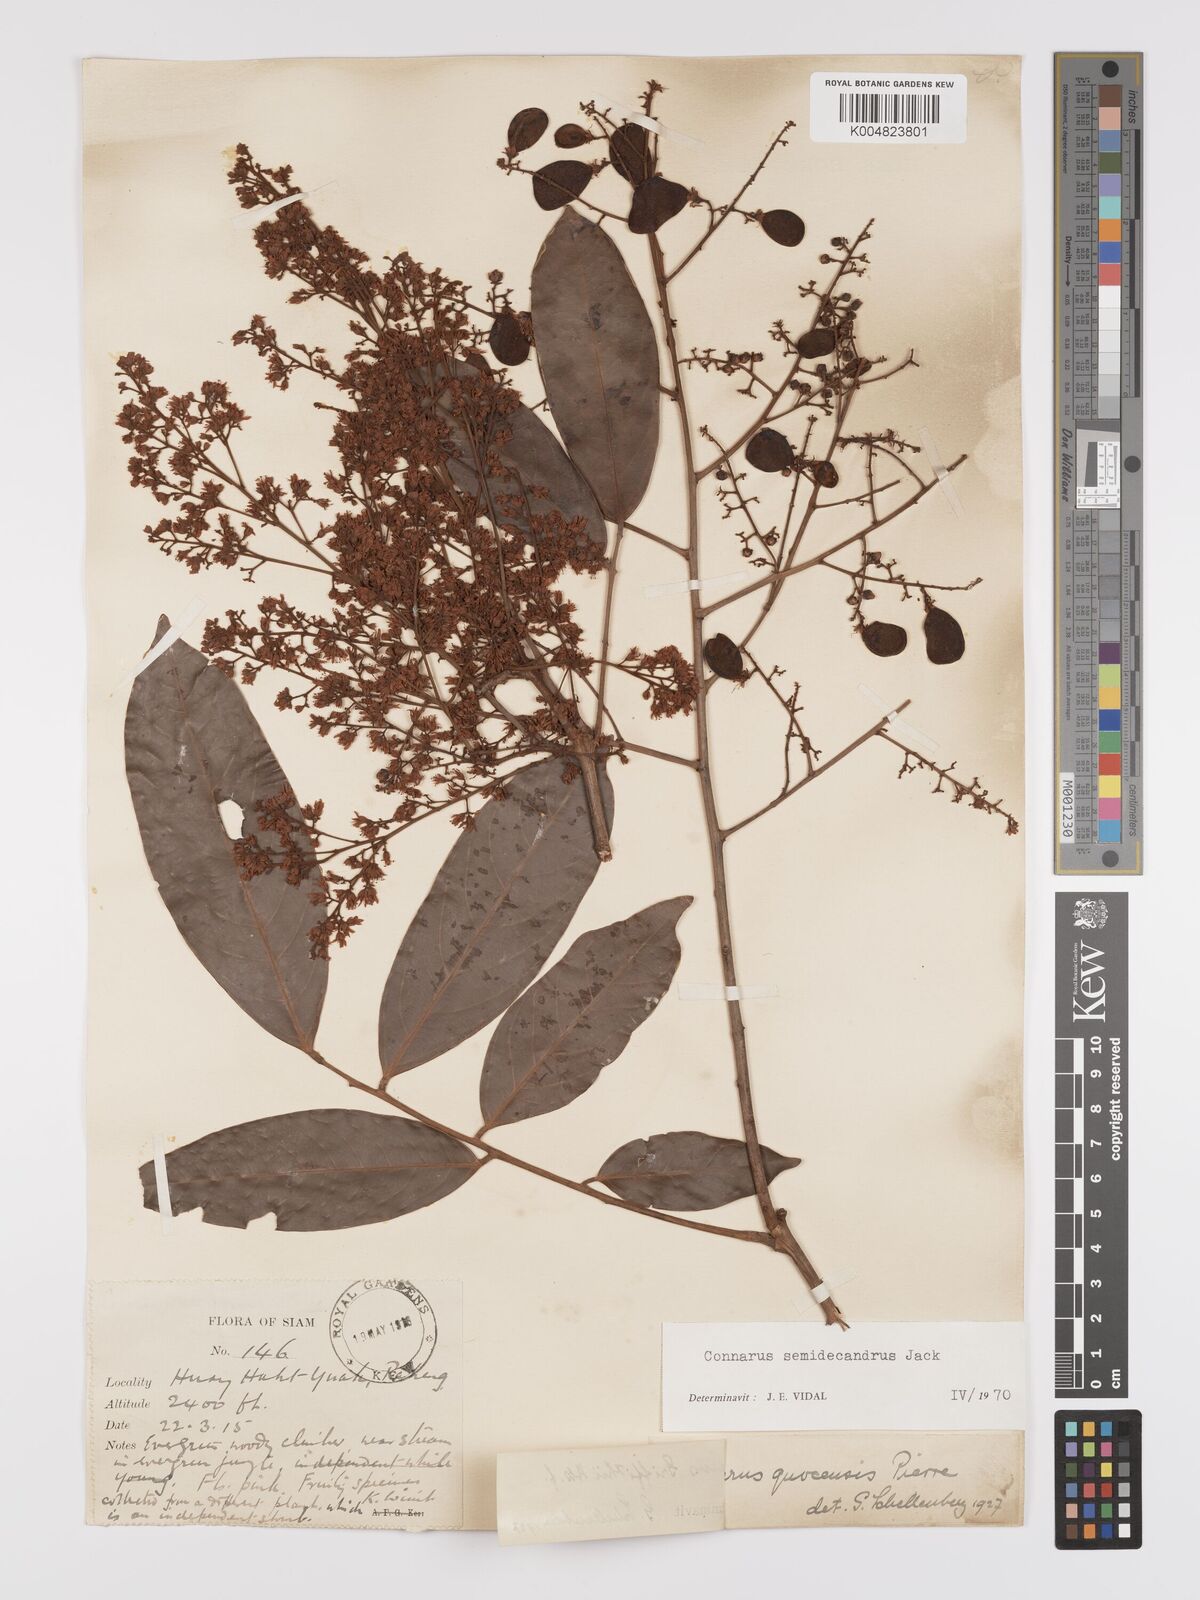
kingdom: Plantae
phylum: Tracheophyta
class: Magnoliopsida
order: Oxalidales
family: Connaraceae
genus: Connarus
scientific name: Connarus semidecandrus
